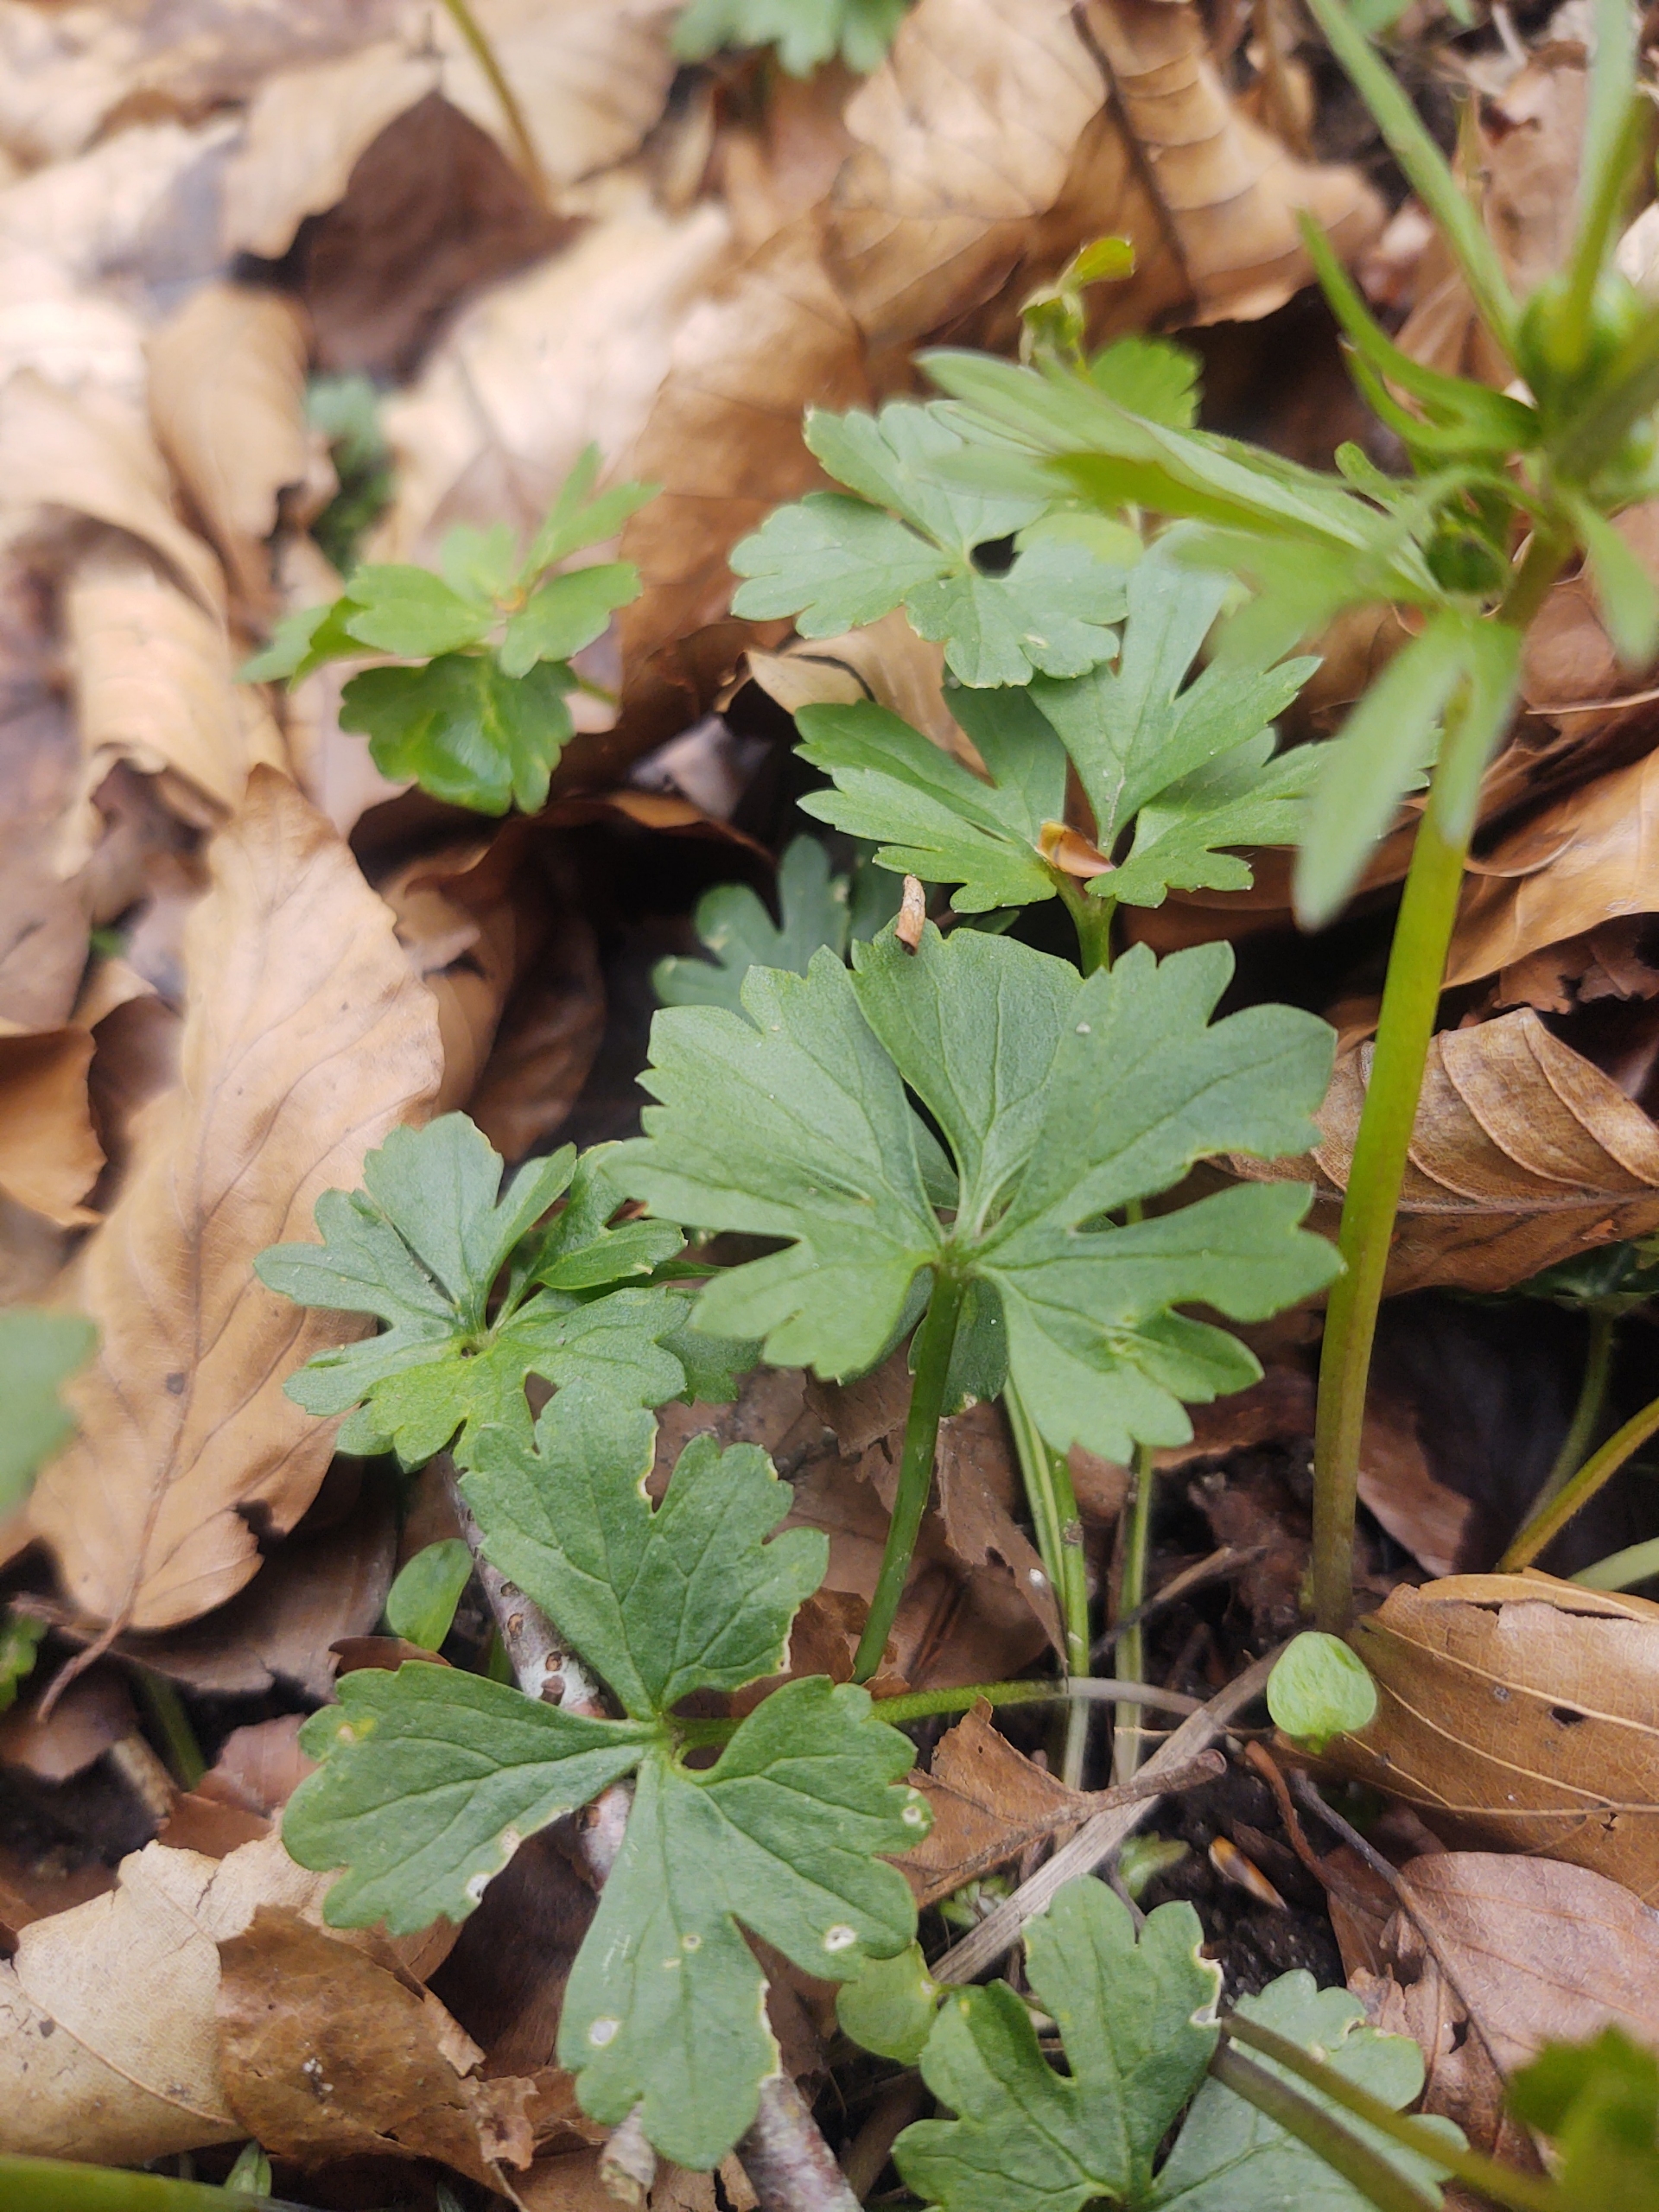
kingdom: Plantae
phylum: Tracheophyta
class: Magnoliopsida
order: Ranunculales
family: Ranunculaceae
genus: Ranunculus
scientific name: Ranunculus auricomus
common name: Nyrebladet ranunkel
